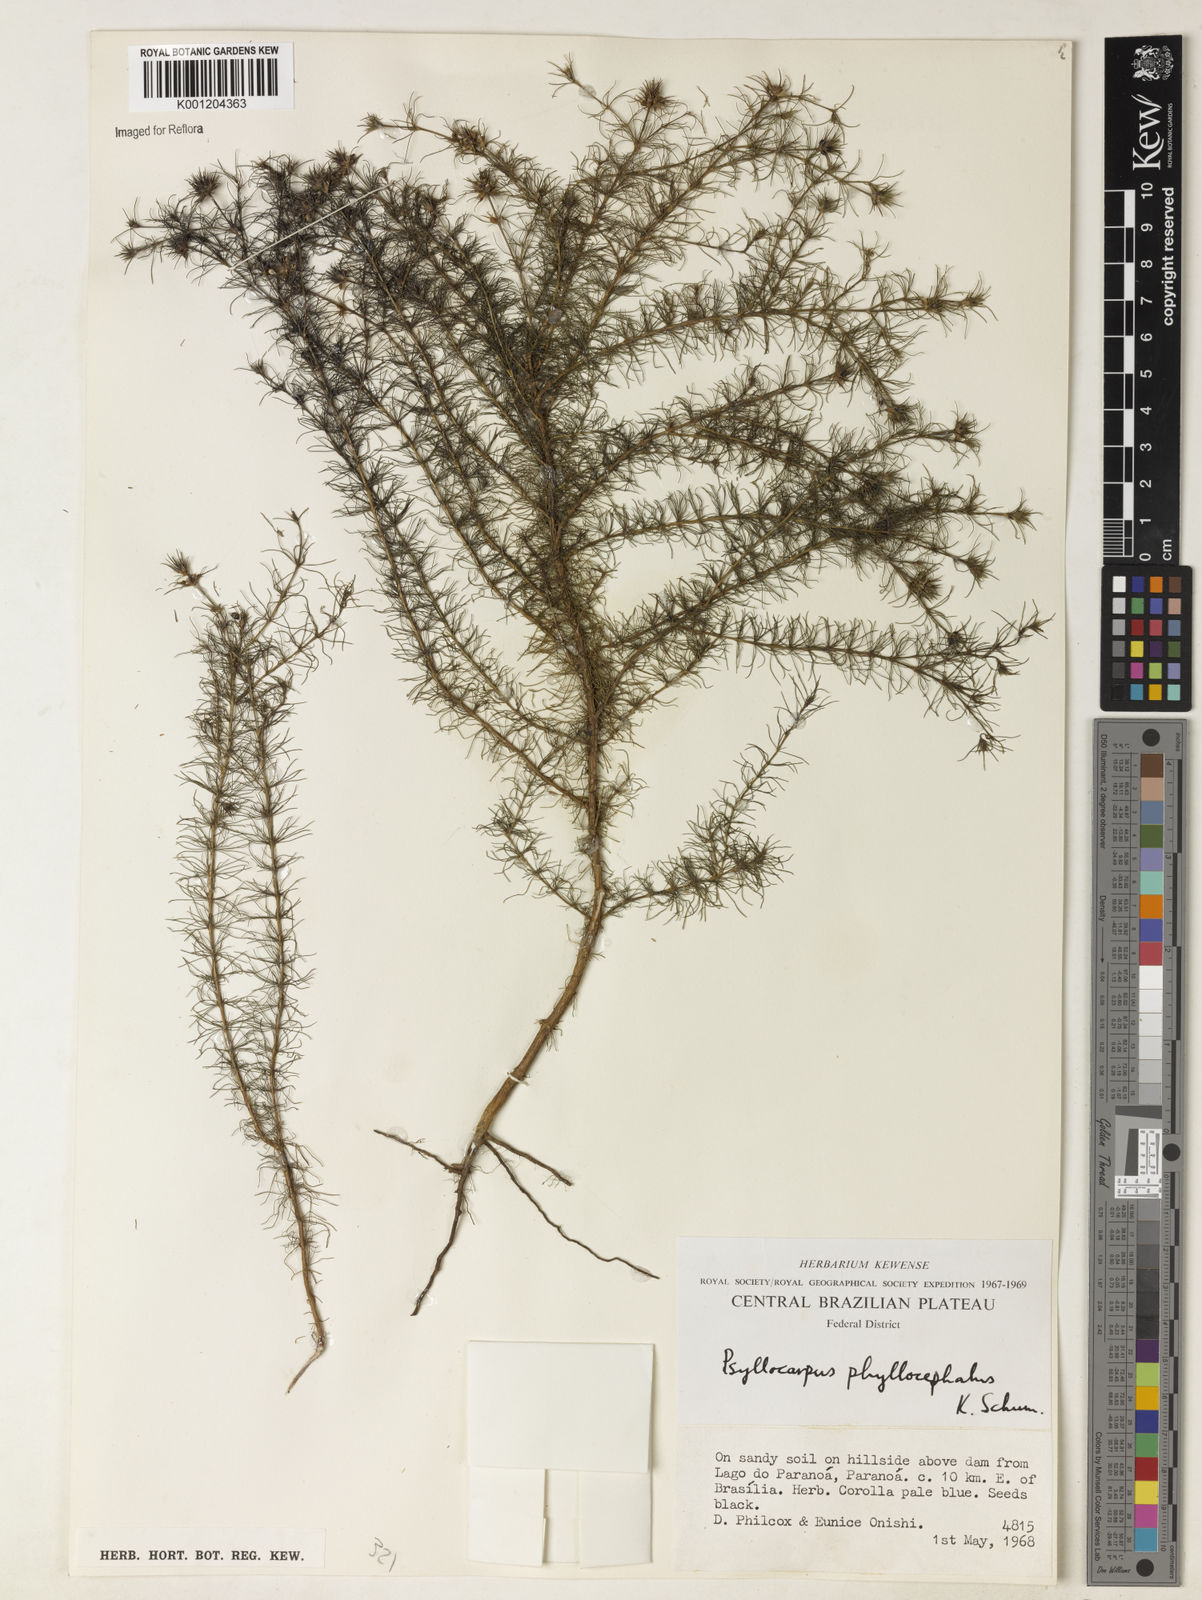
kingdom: Plantae
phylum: Tracheophyta
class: Magnoliopsida
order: Gentianales
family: Rubiaceae
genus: Psyllocarpus
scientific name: Psyllocarpus phyllocephalus
